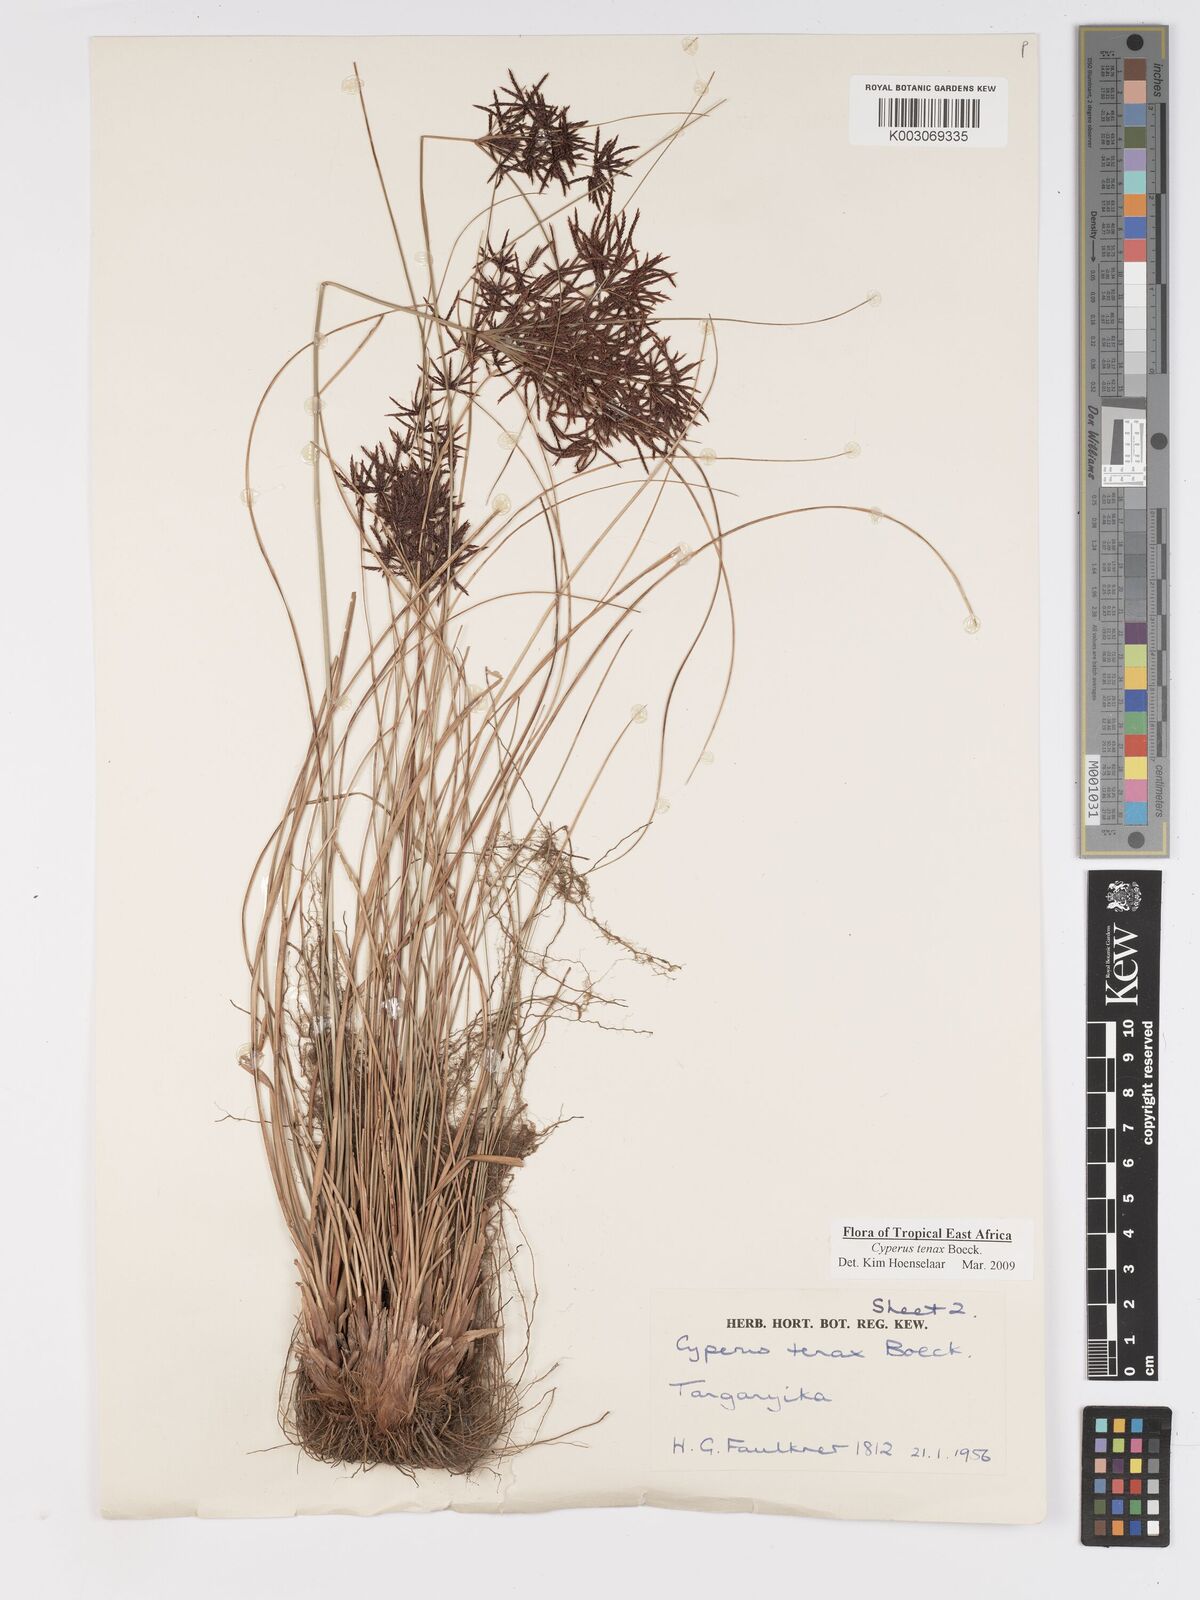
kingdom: Plantae
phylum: Tracheophyta
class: Liliopsida
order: Poales
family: Cyperaceae
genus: Cyperus
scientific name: Cyperus tenax
